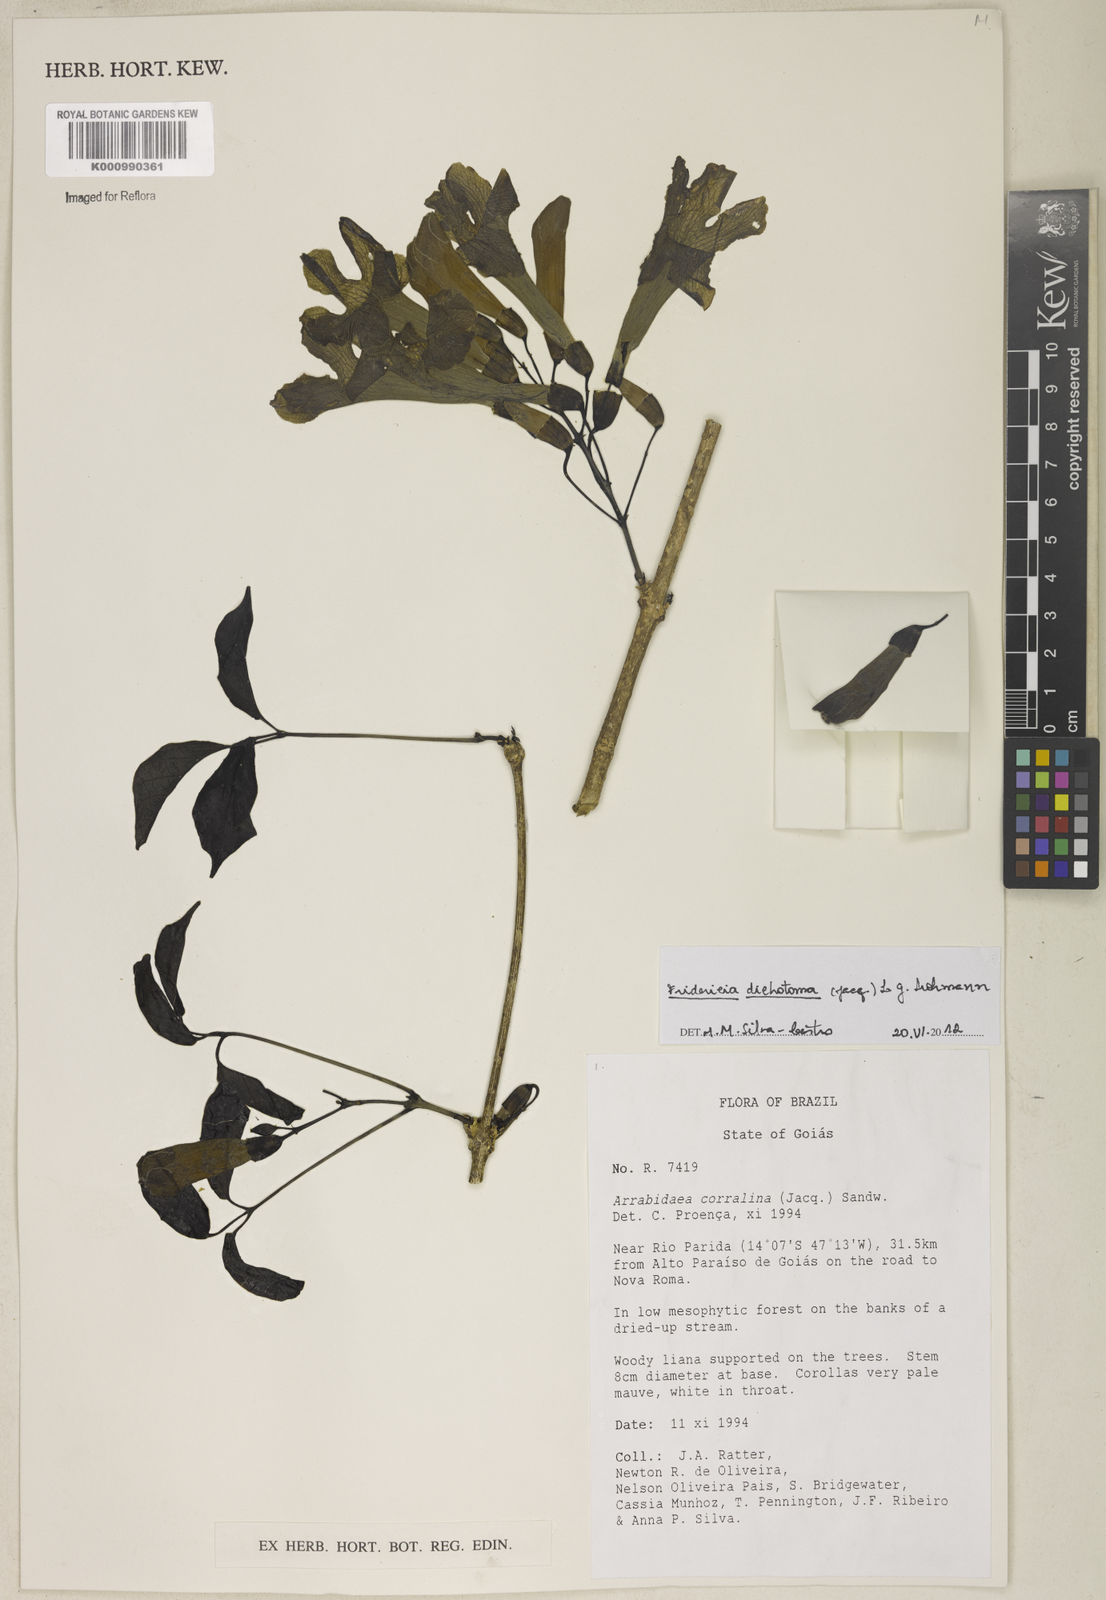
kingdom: Plantae
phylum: Tracheophyta
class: Magnoliopsida
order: Lamiales
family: Bignoniaceae
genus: Tanaecium
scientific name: Tanaecium dichotomum
